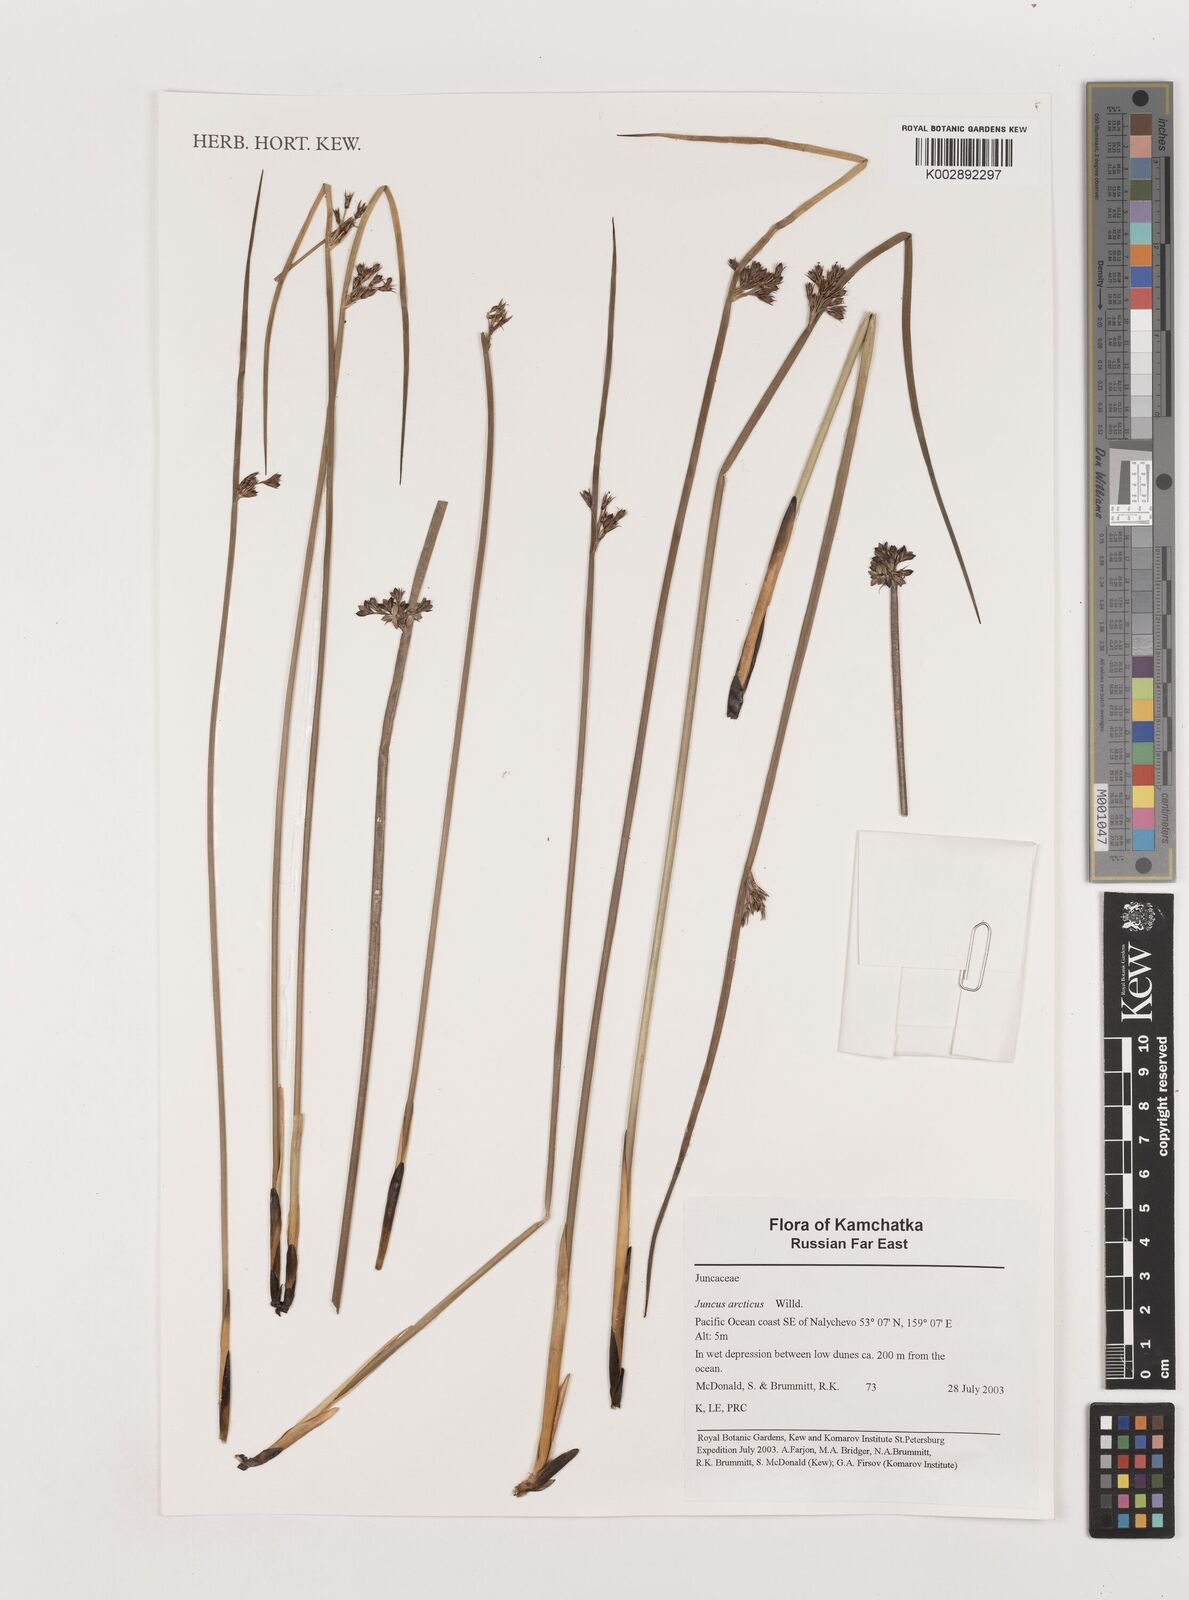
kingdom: Plantae
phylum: Tracheophyta
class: Liliopsida
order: Poales
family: Juncaceae
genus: Juncus
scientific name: Juncus arcticus
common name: Arctic rush
